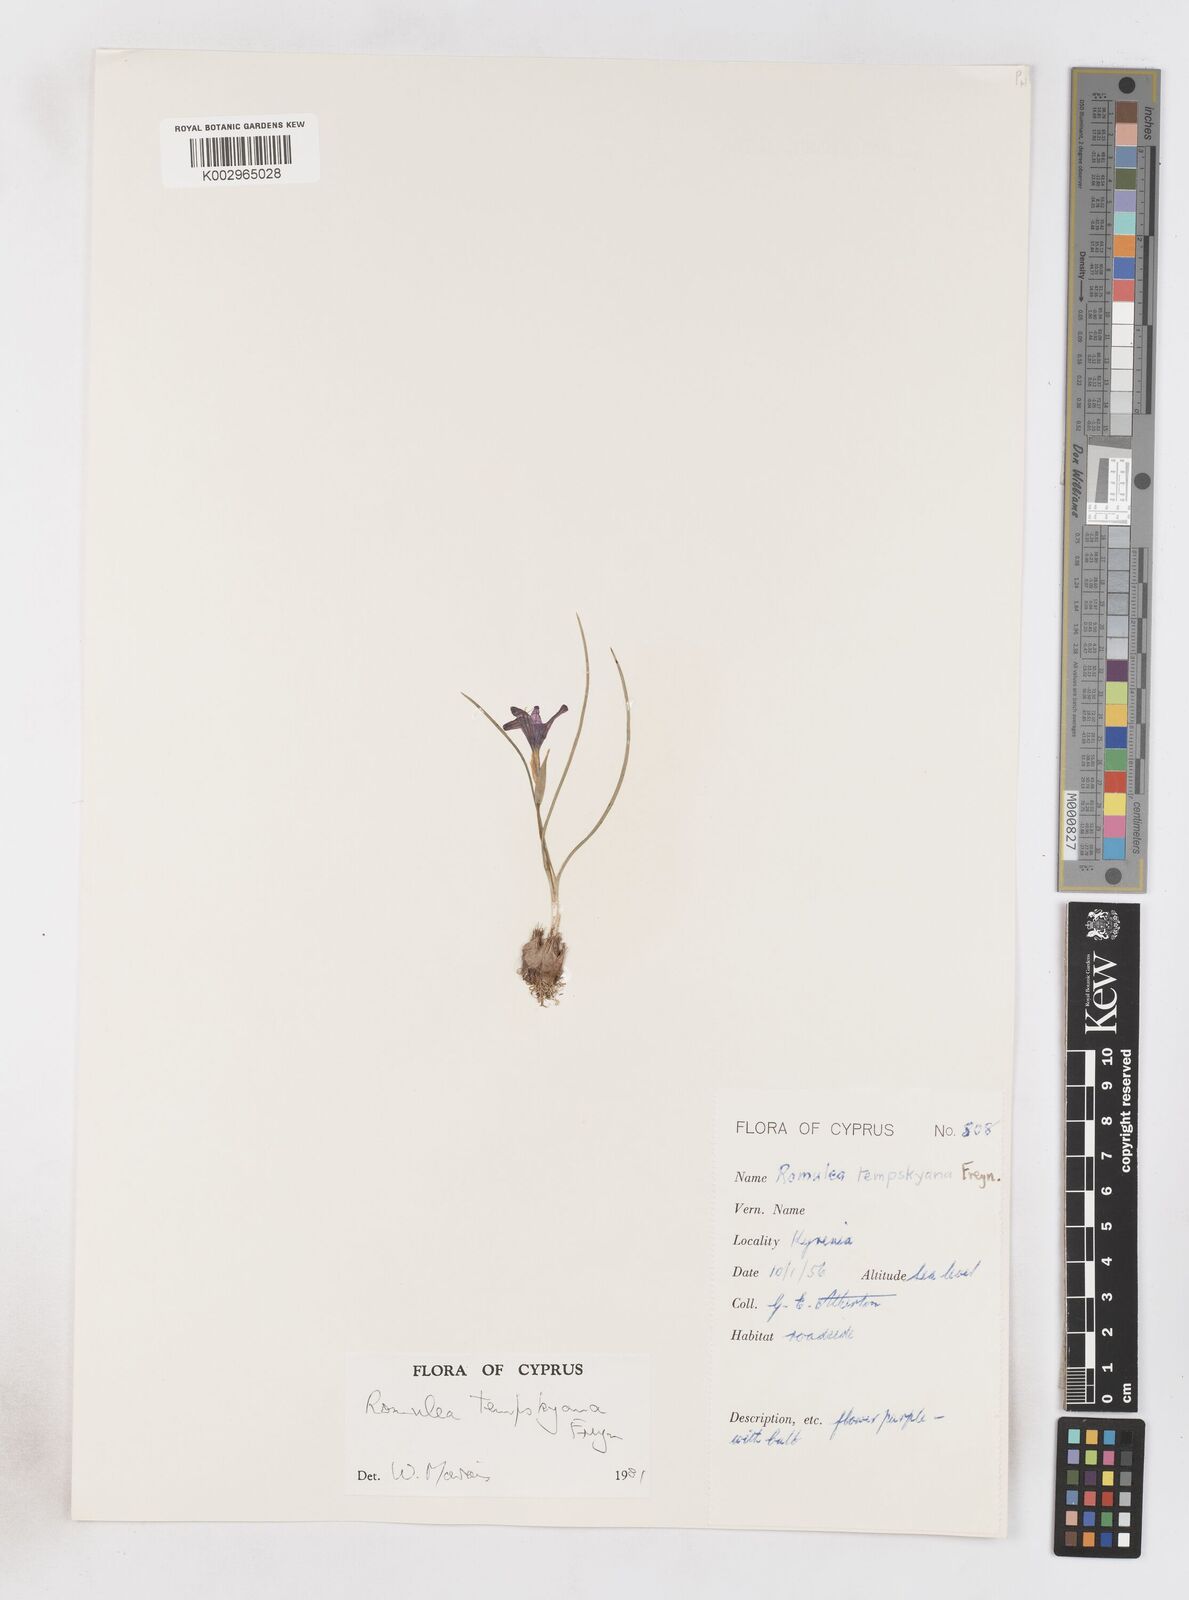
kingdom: Plantae
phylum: Tracheophyta
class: Liliopsida
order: Asparagales
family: Iridaceae
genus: Romulea
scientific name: Romulea tempskyana
